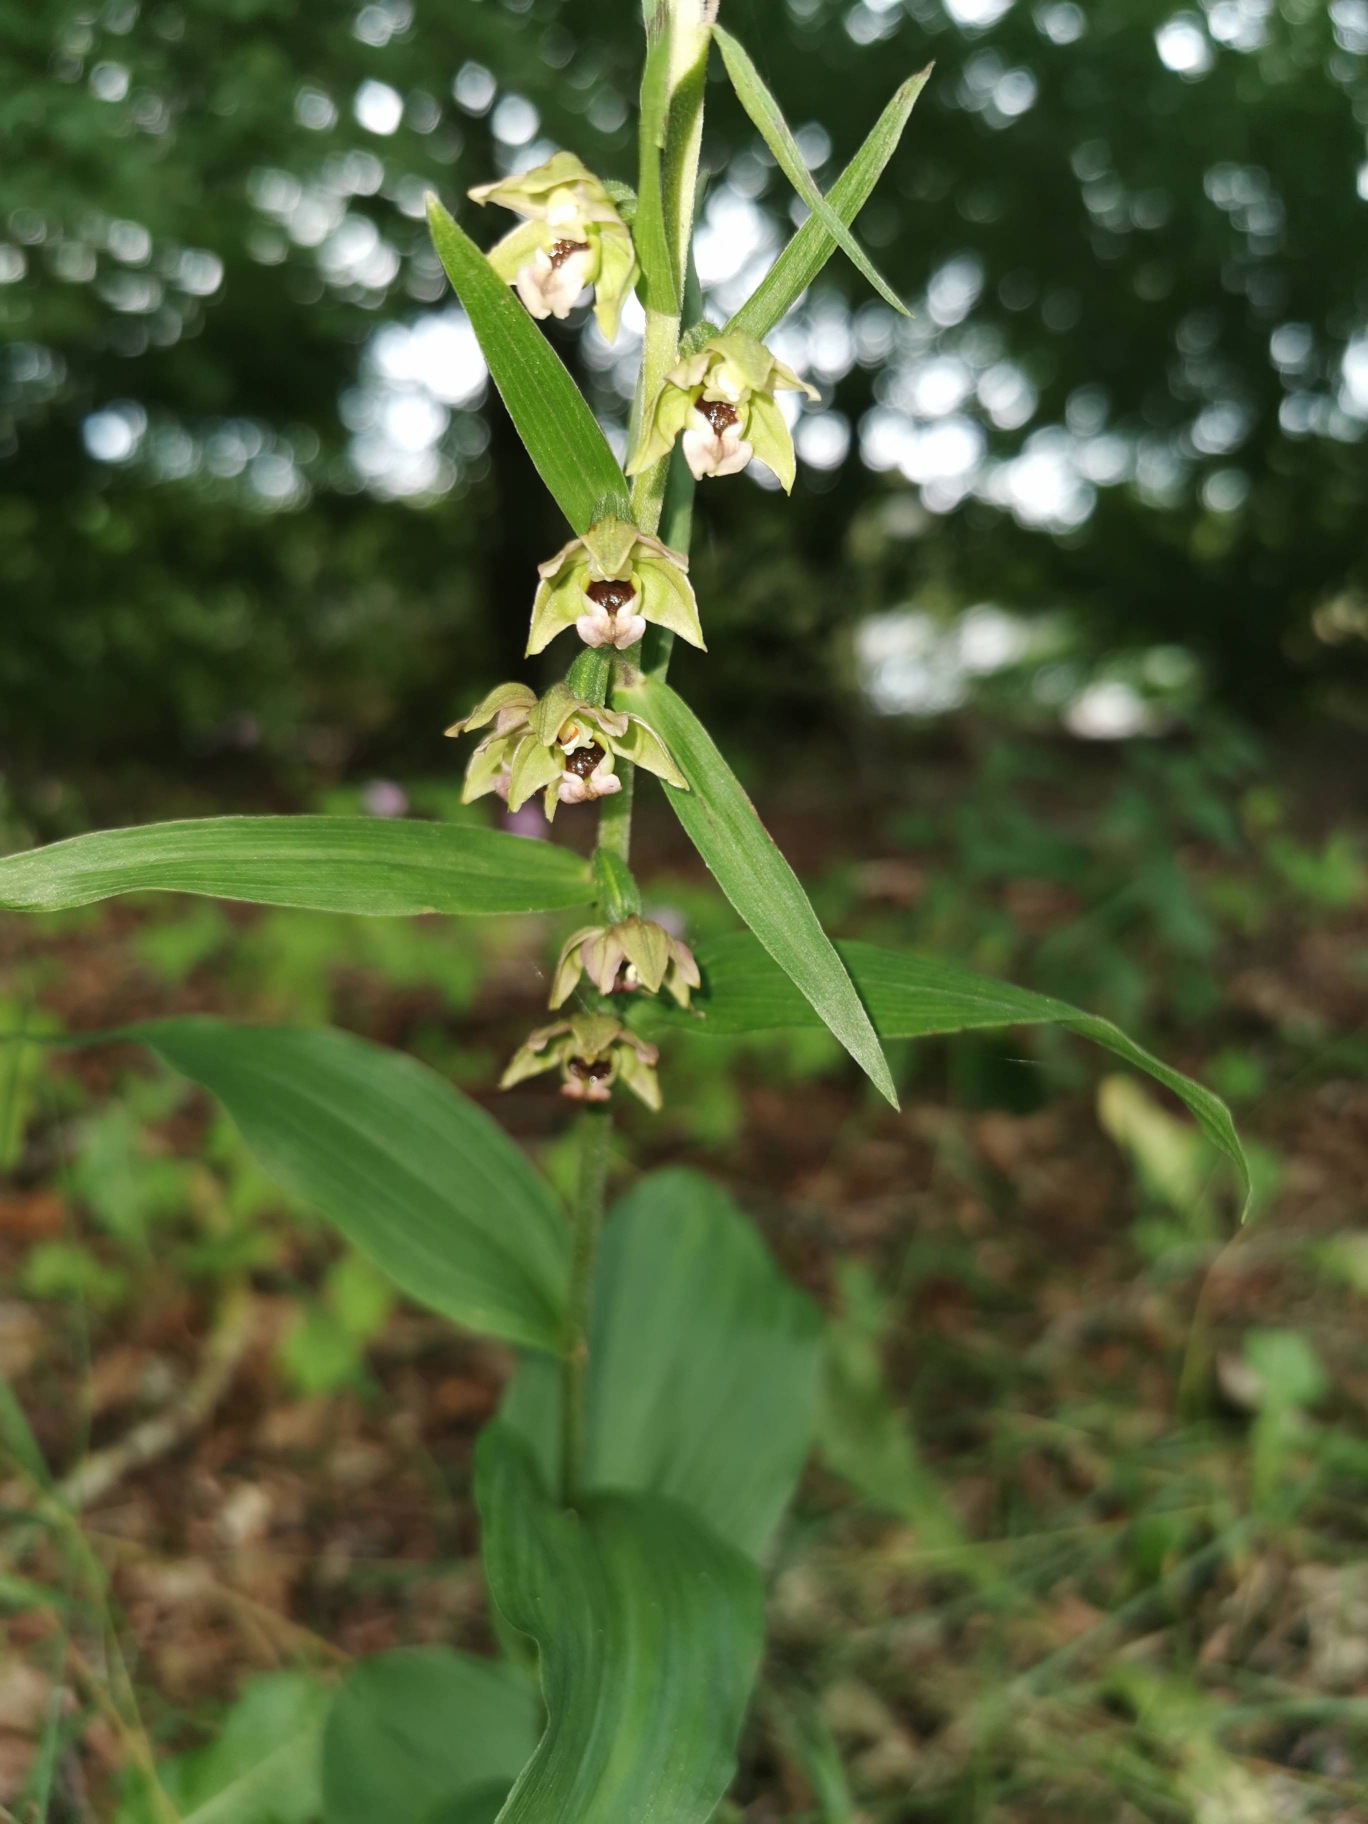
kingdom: Plantae
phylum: Tracheophyta
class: Liliopsida
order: Asparagales
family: Orchidaceae
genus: Epipactis
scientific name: Epipactis helleborine
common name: Skov-hullæbe
